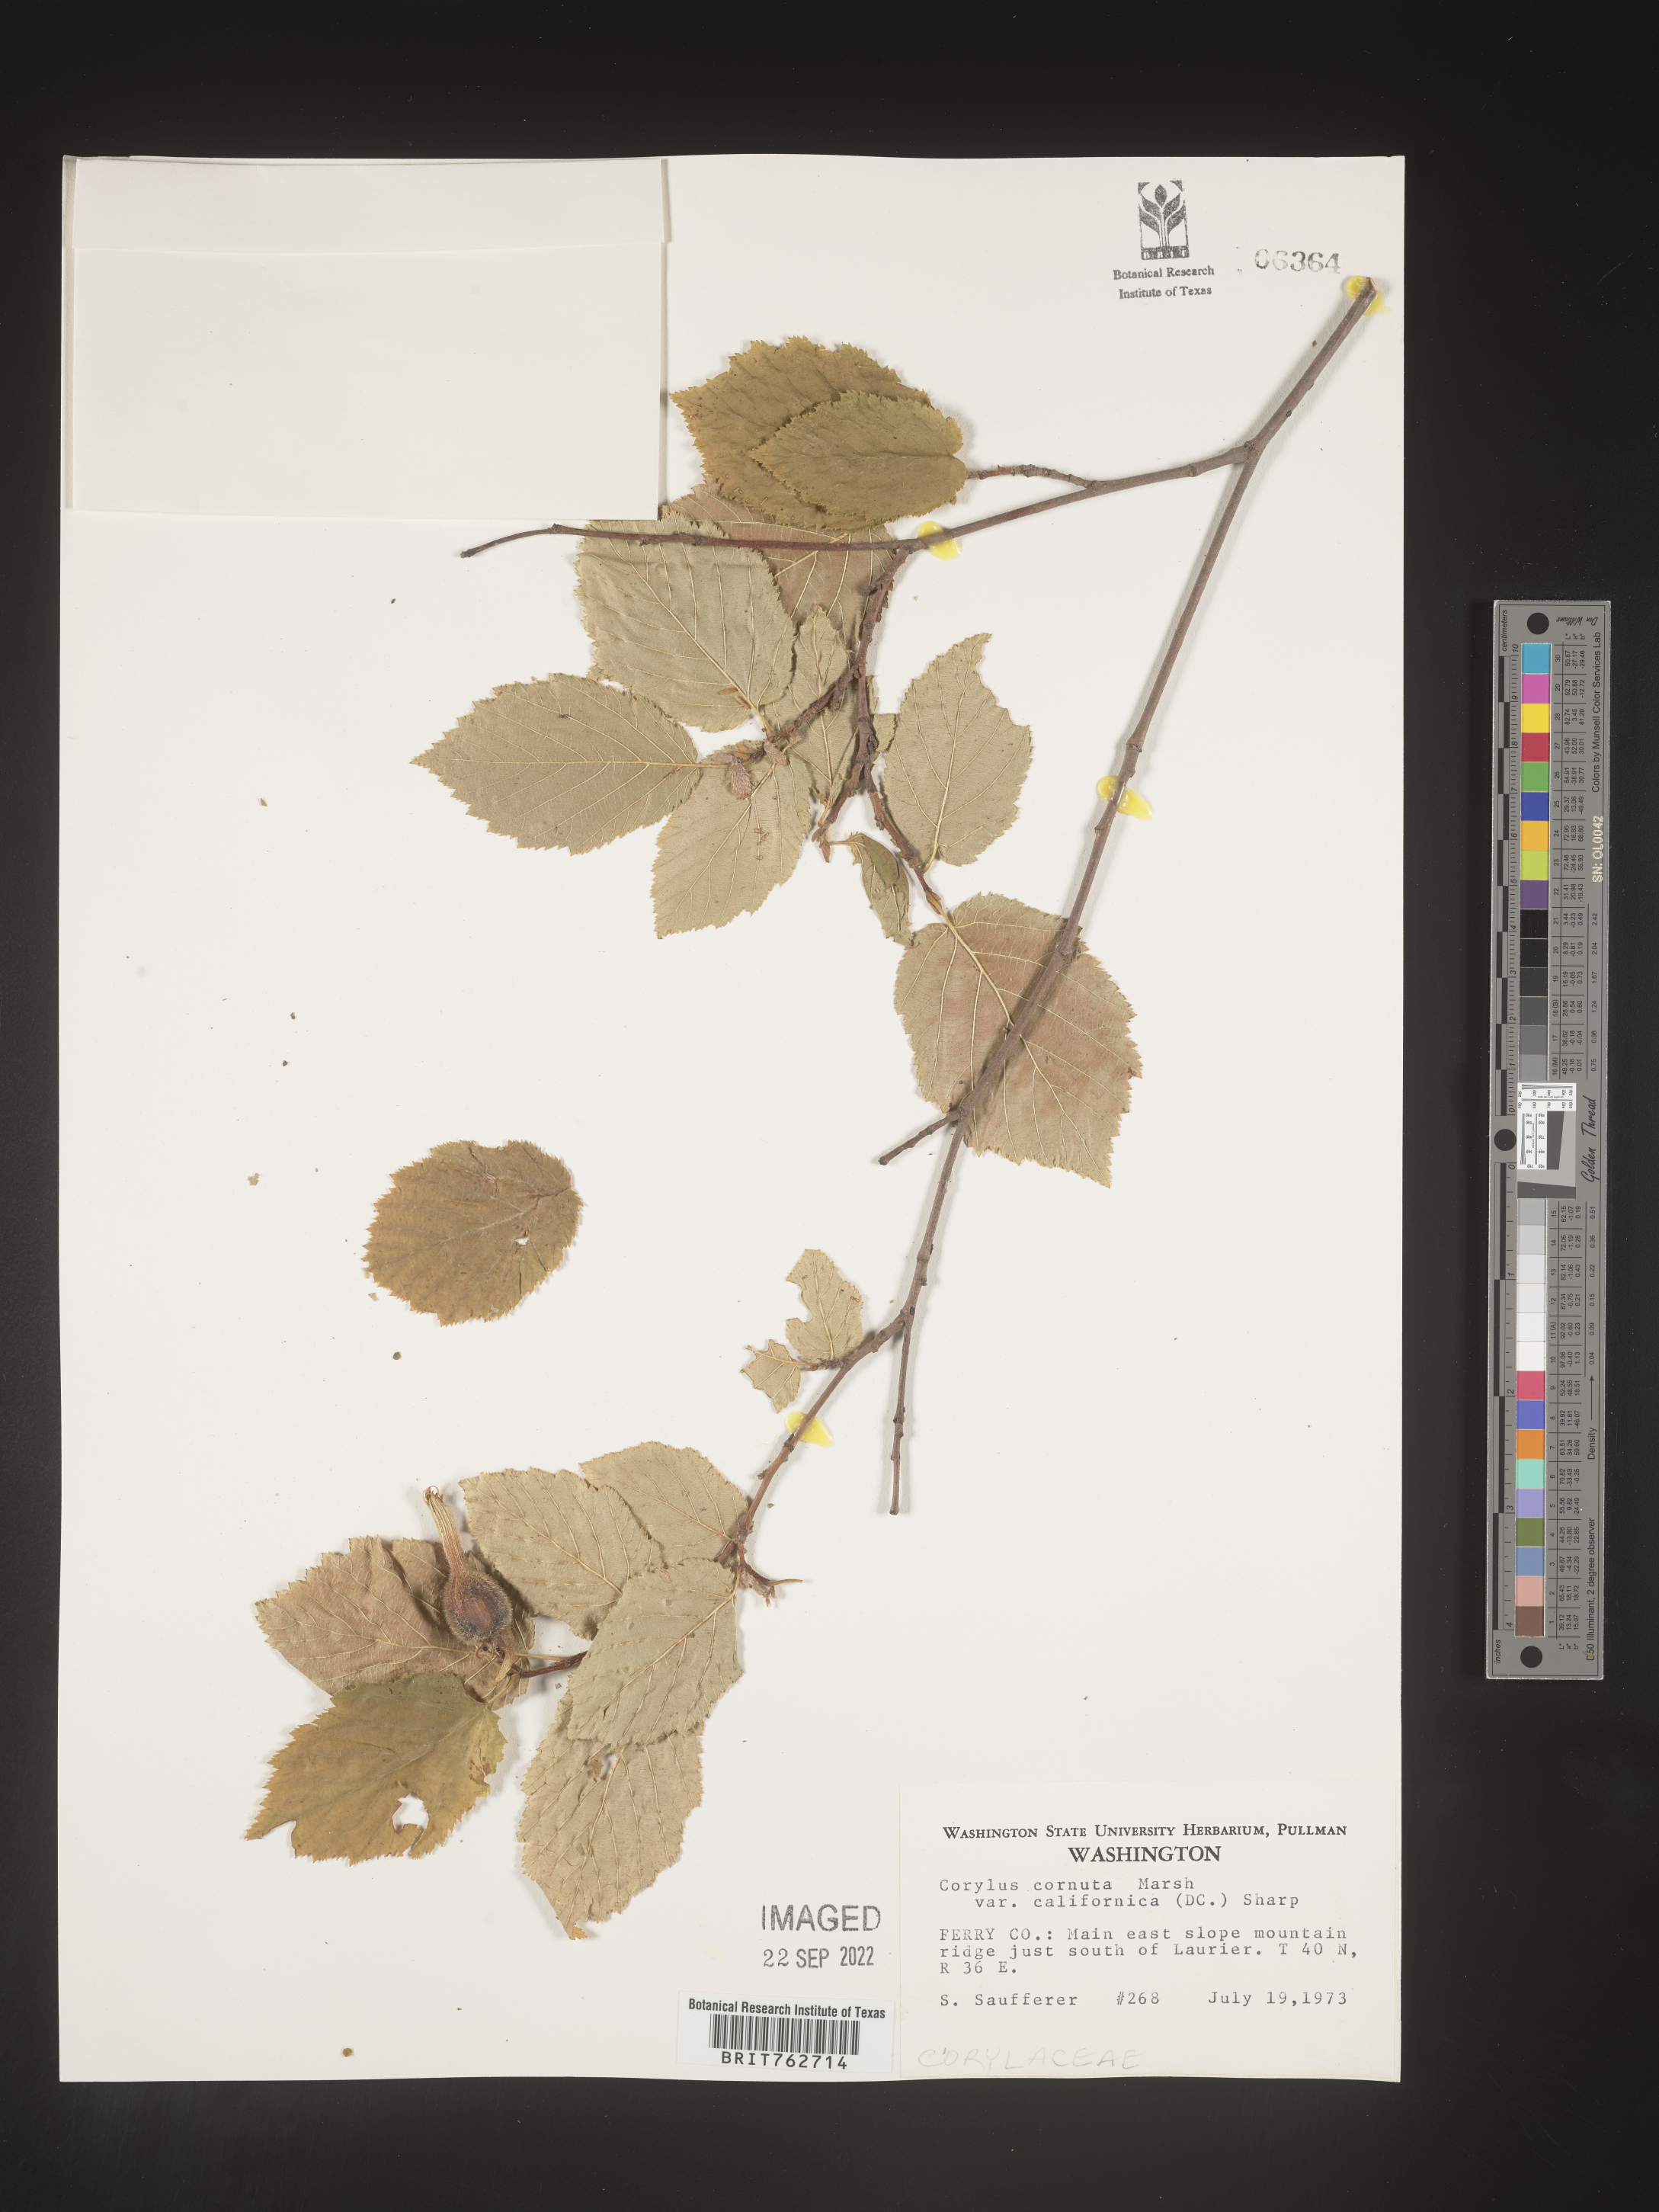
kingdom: Plantae
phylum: Tracheophyta
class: Magnoliopsida
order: Fagales
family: Betulaceae
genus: Corylus
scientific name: Corylus cornuta
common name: Beaked hazel
